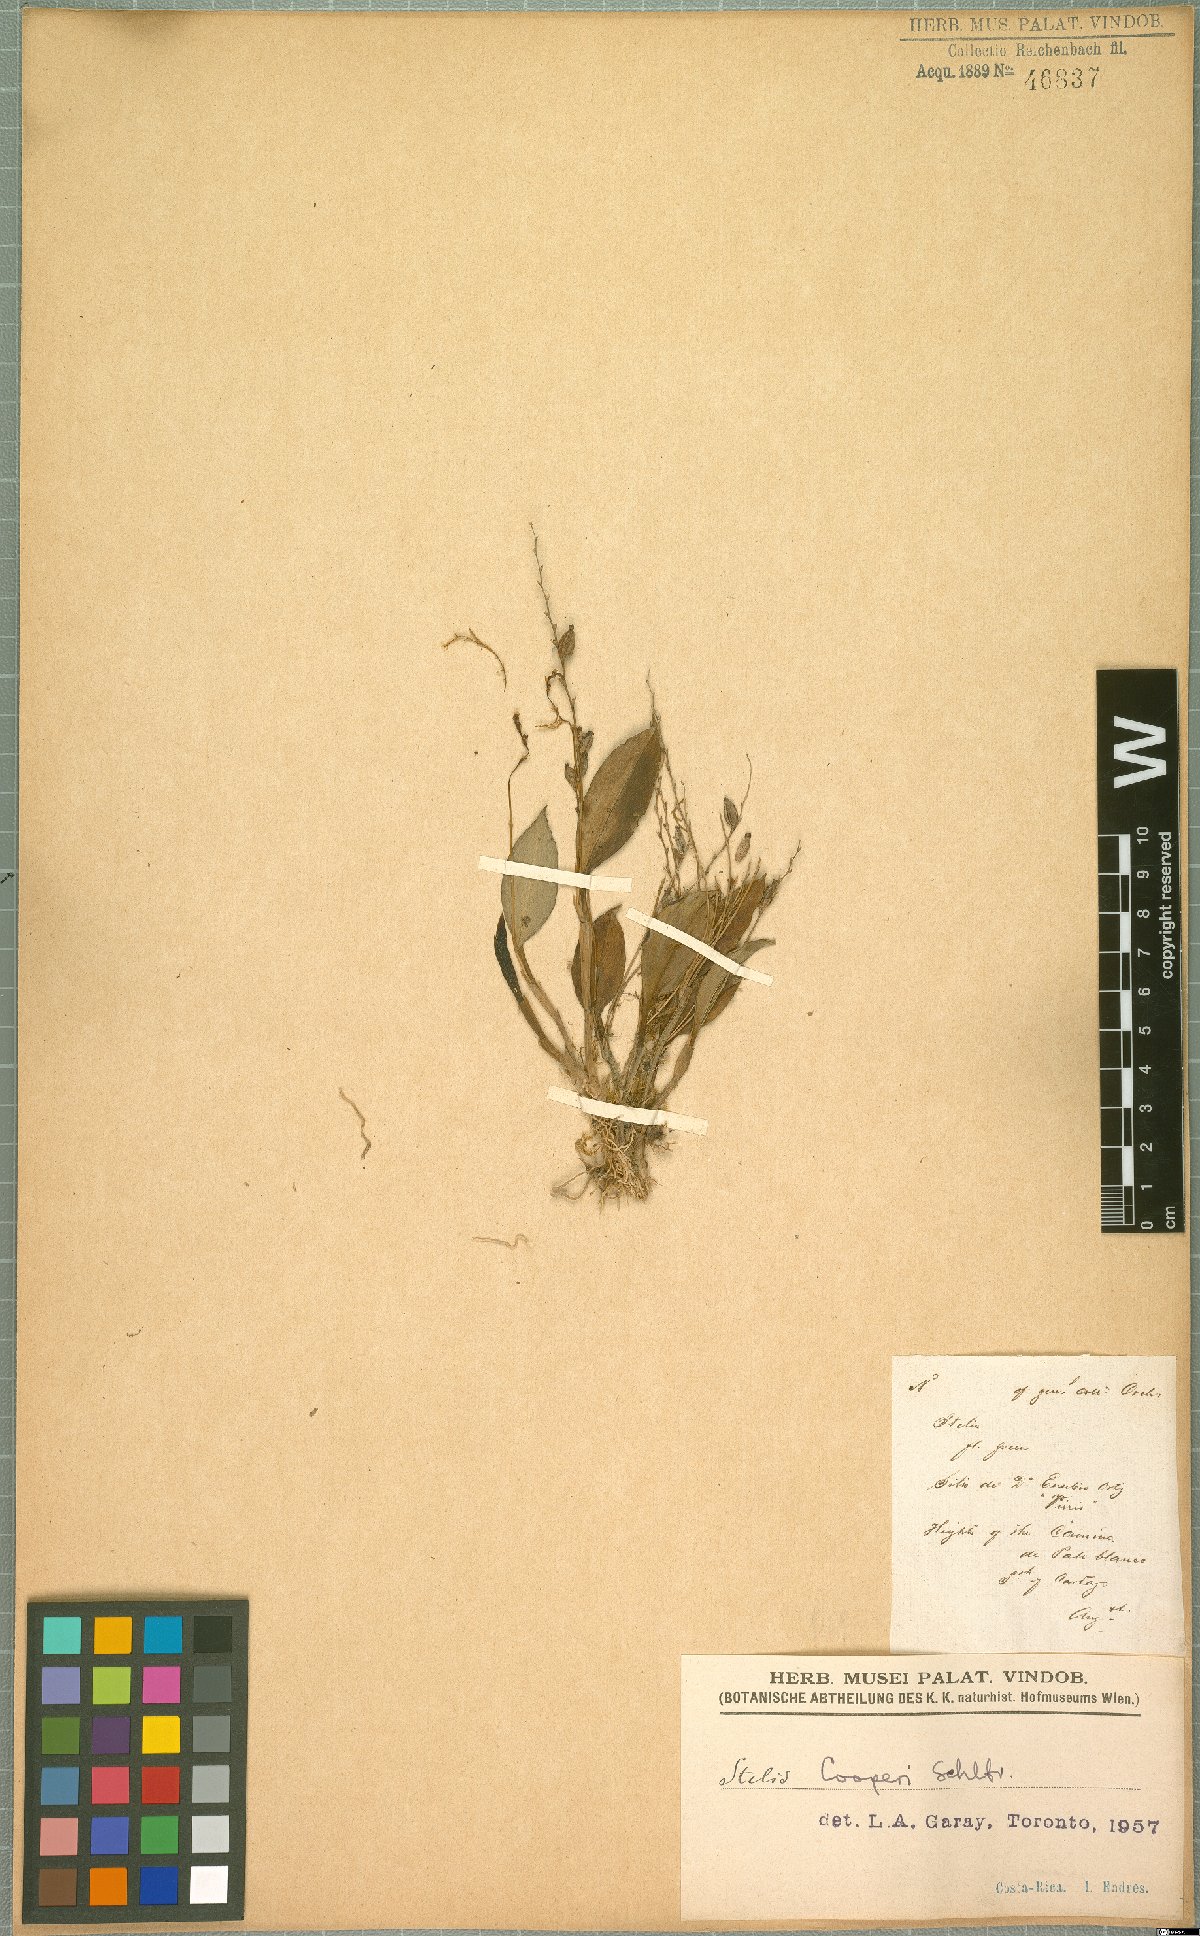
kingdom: Plantae
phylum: Tracheophyta
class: Liliopsida
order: Asparagales
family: Orchidaceae
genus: Stelis
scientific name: Stelis cooperi
